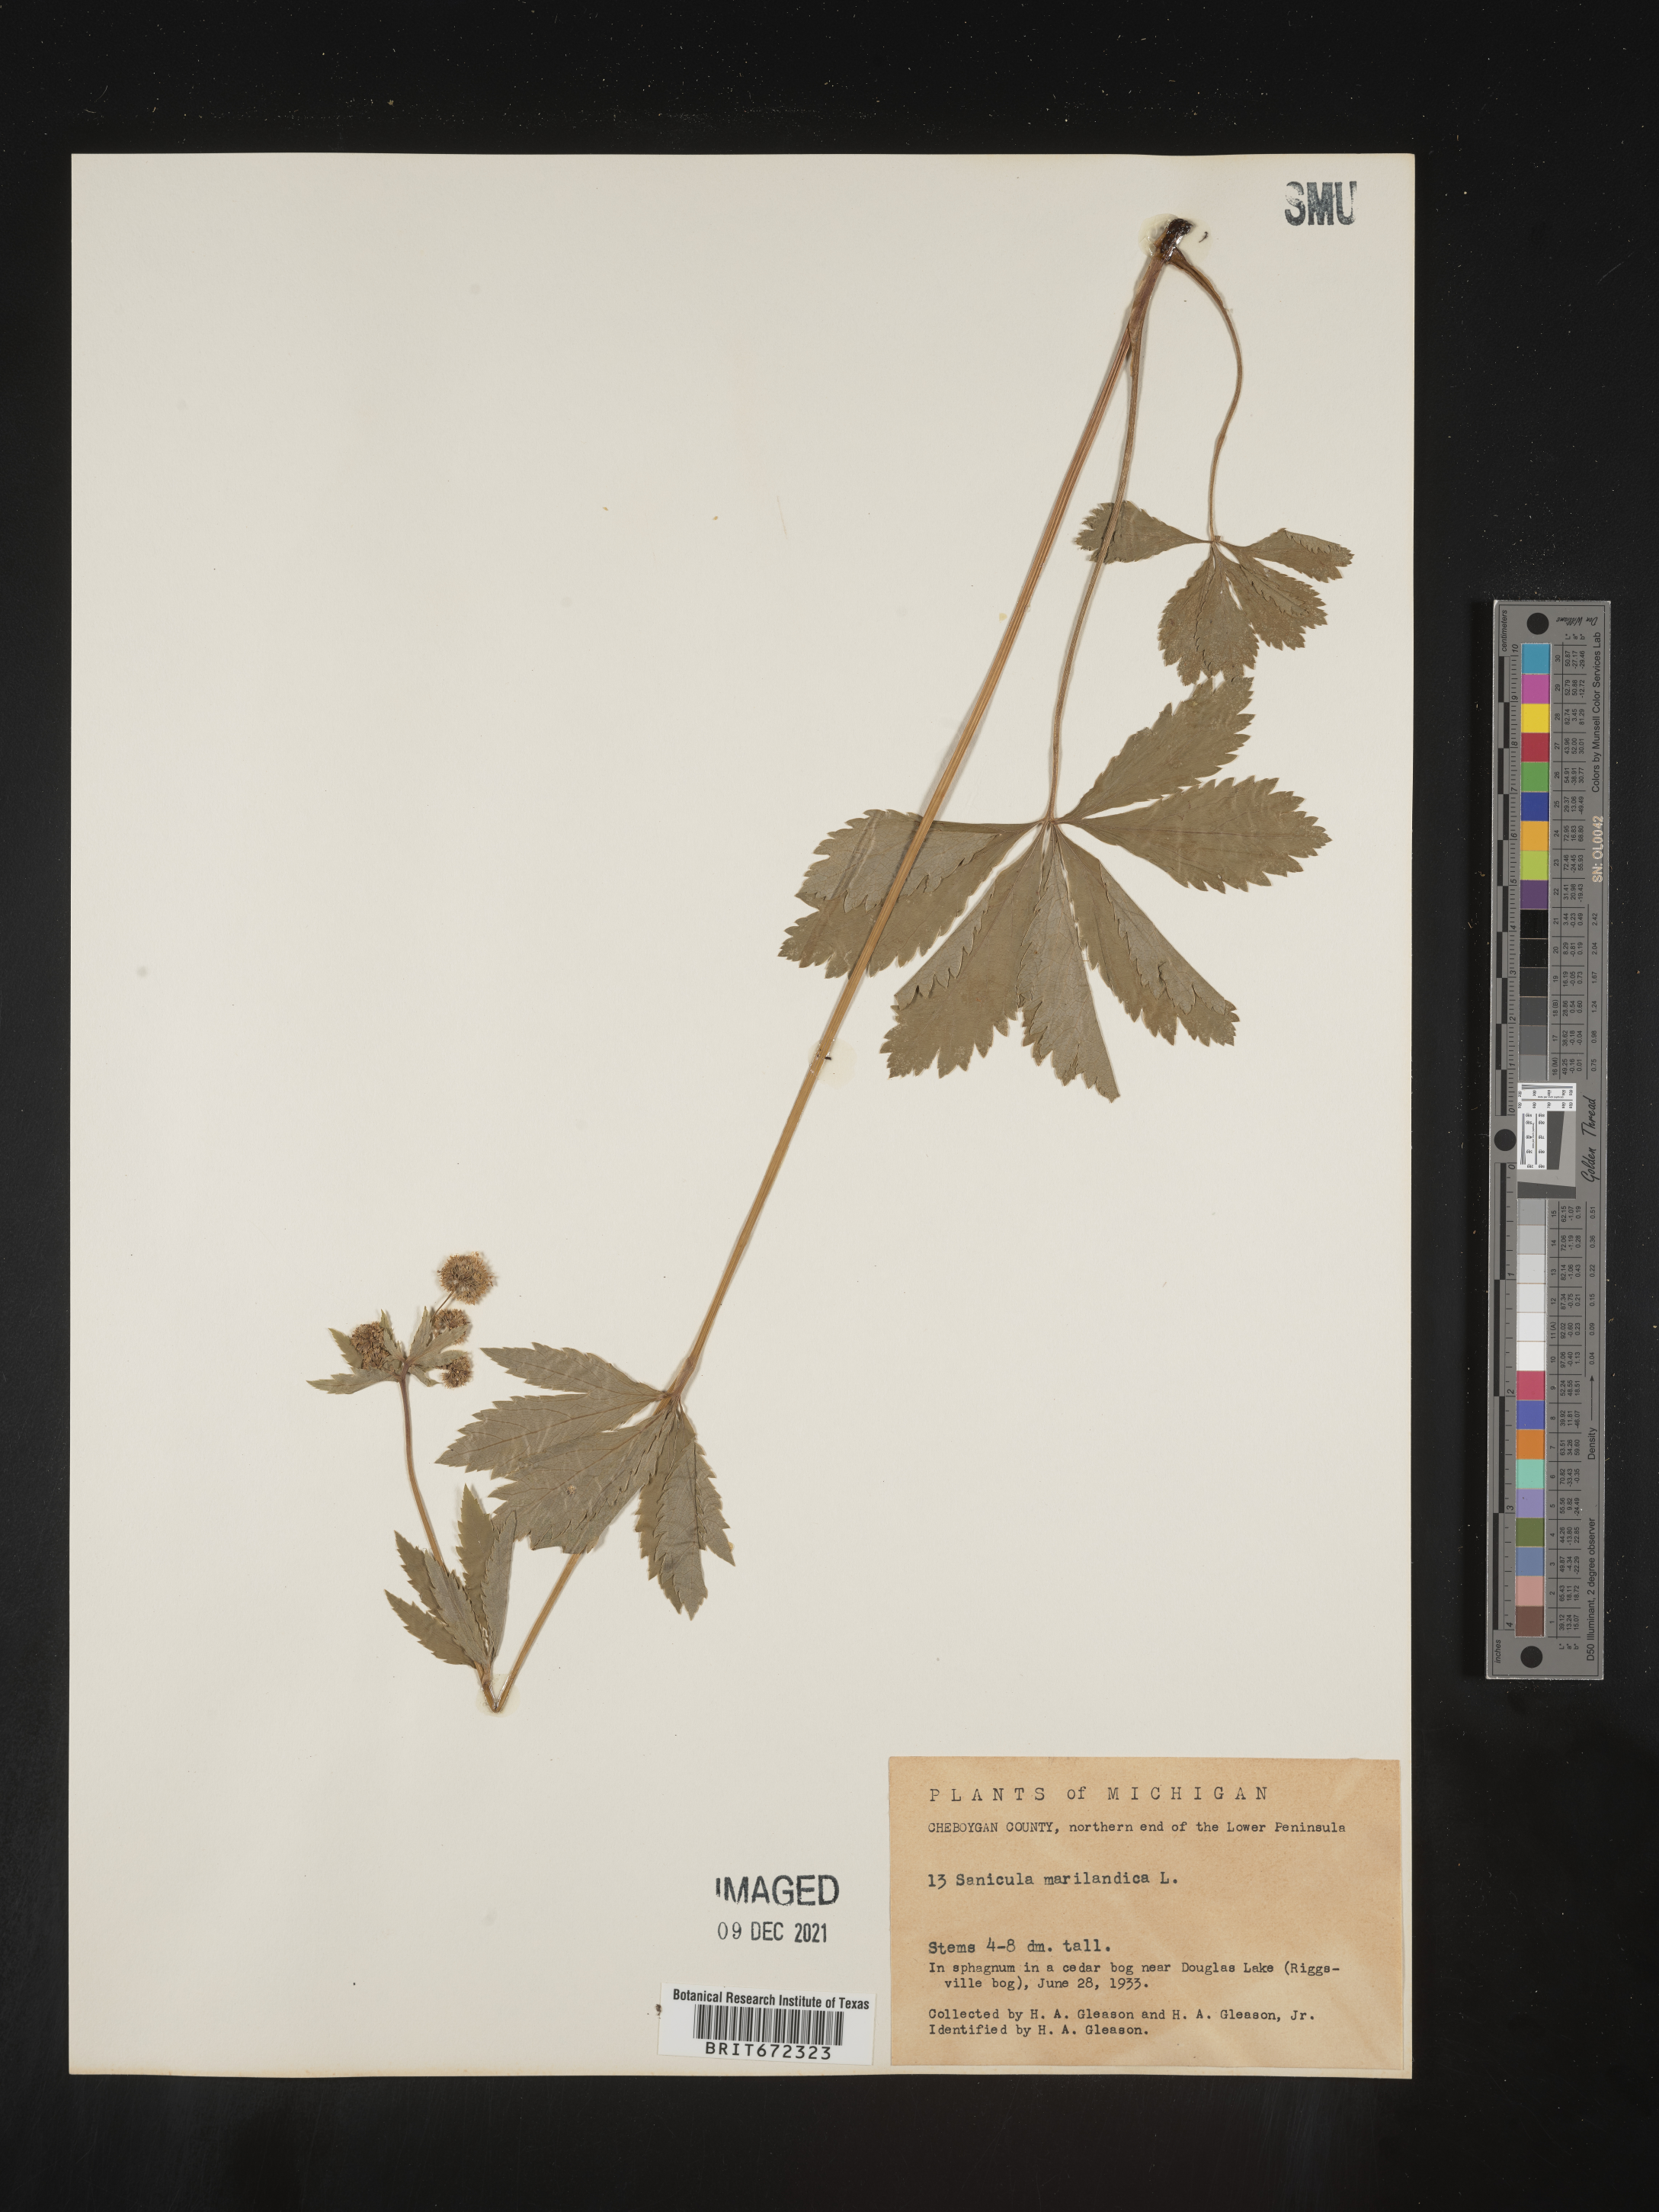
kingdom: Plantae
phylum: Tracheophyta
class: Magnoliopsida
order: Apiales
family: Apiaceae
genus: Sanicula
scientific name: Sanicula marilandica
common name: Black snakeroot
